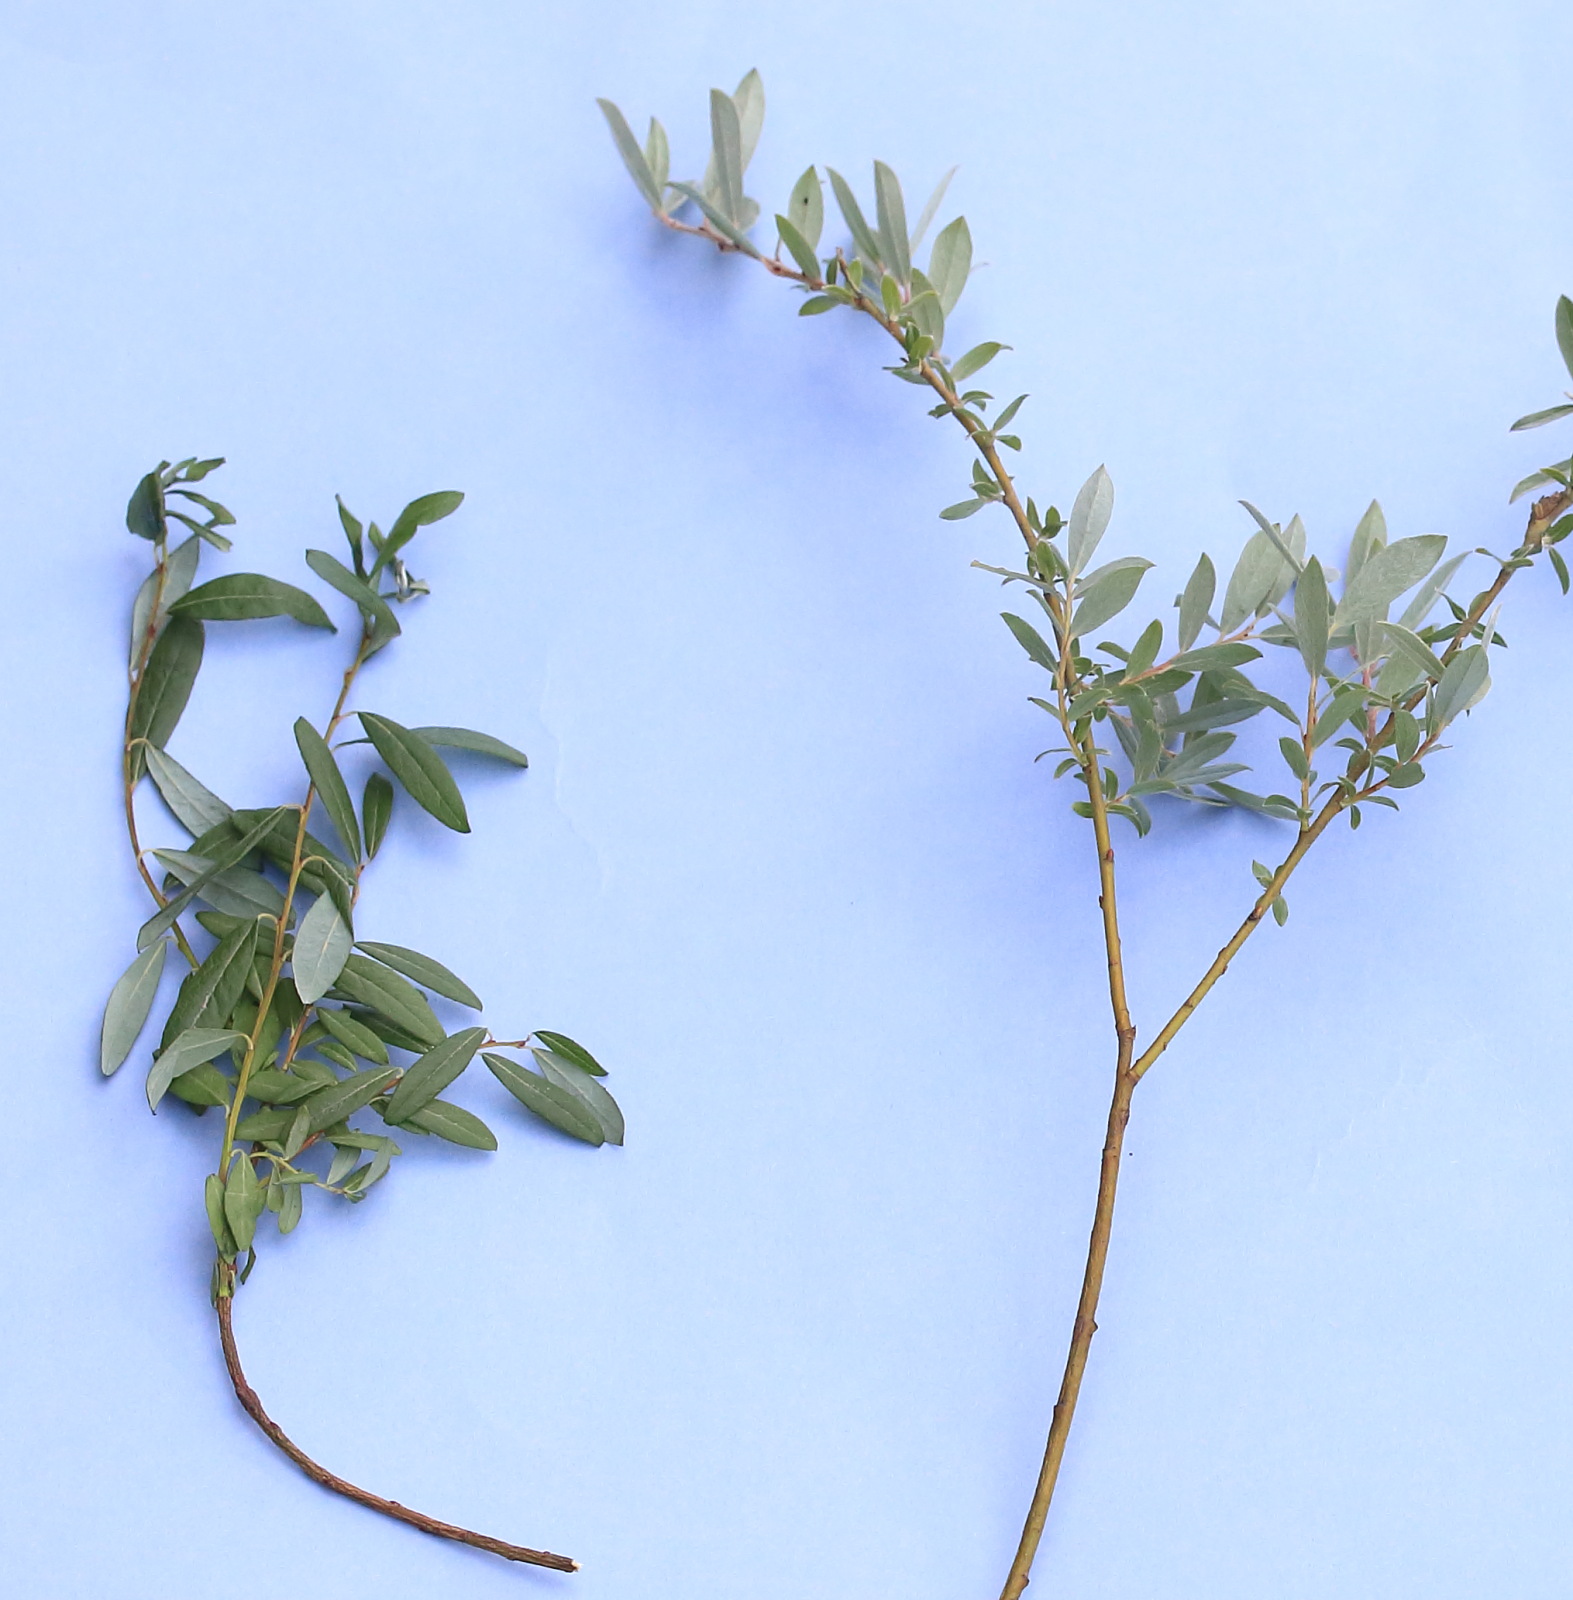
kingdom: Plantae
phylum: Tracheophyta
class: Magnoliopsida
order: Malpighiales
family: Salicaceae
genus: Salix
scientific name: Salix repens
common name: Krybende pil
